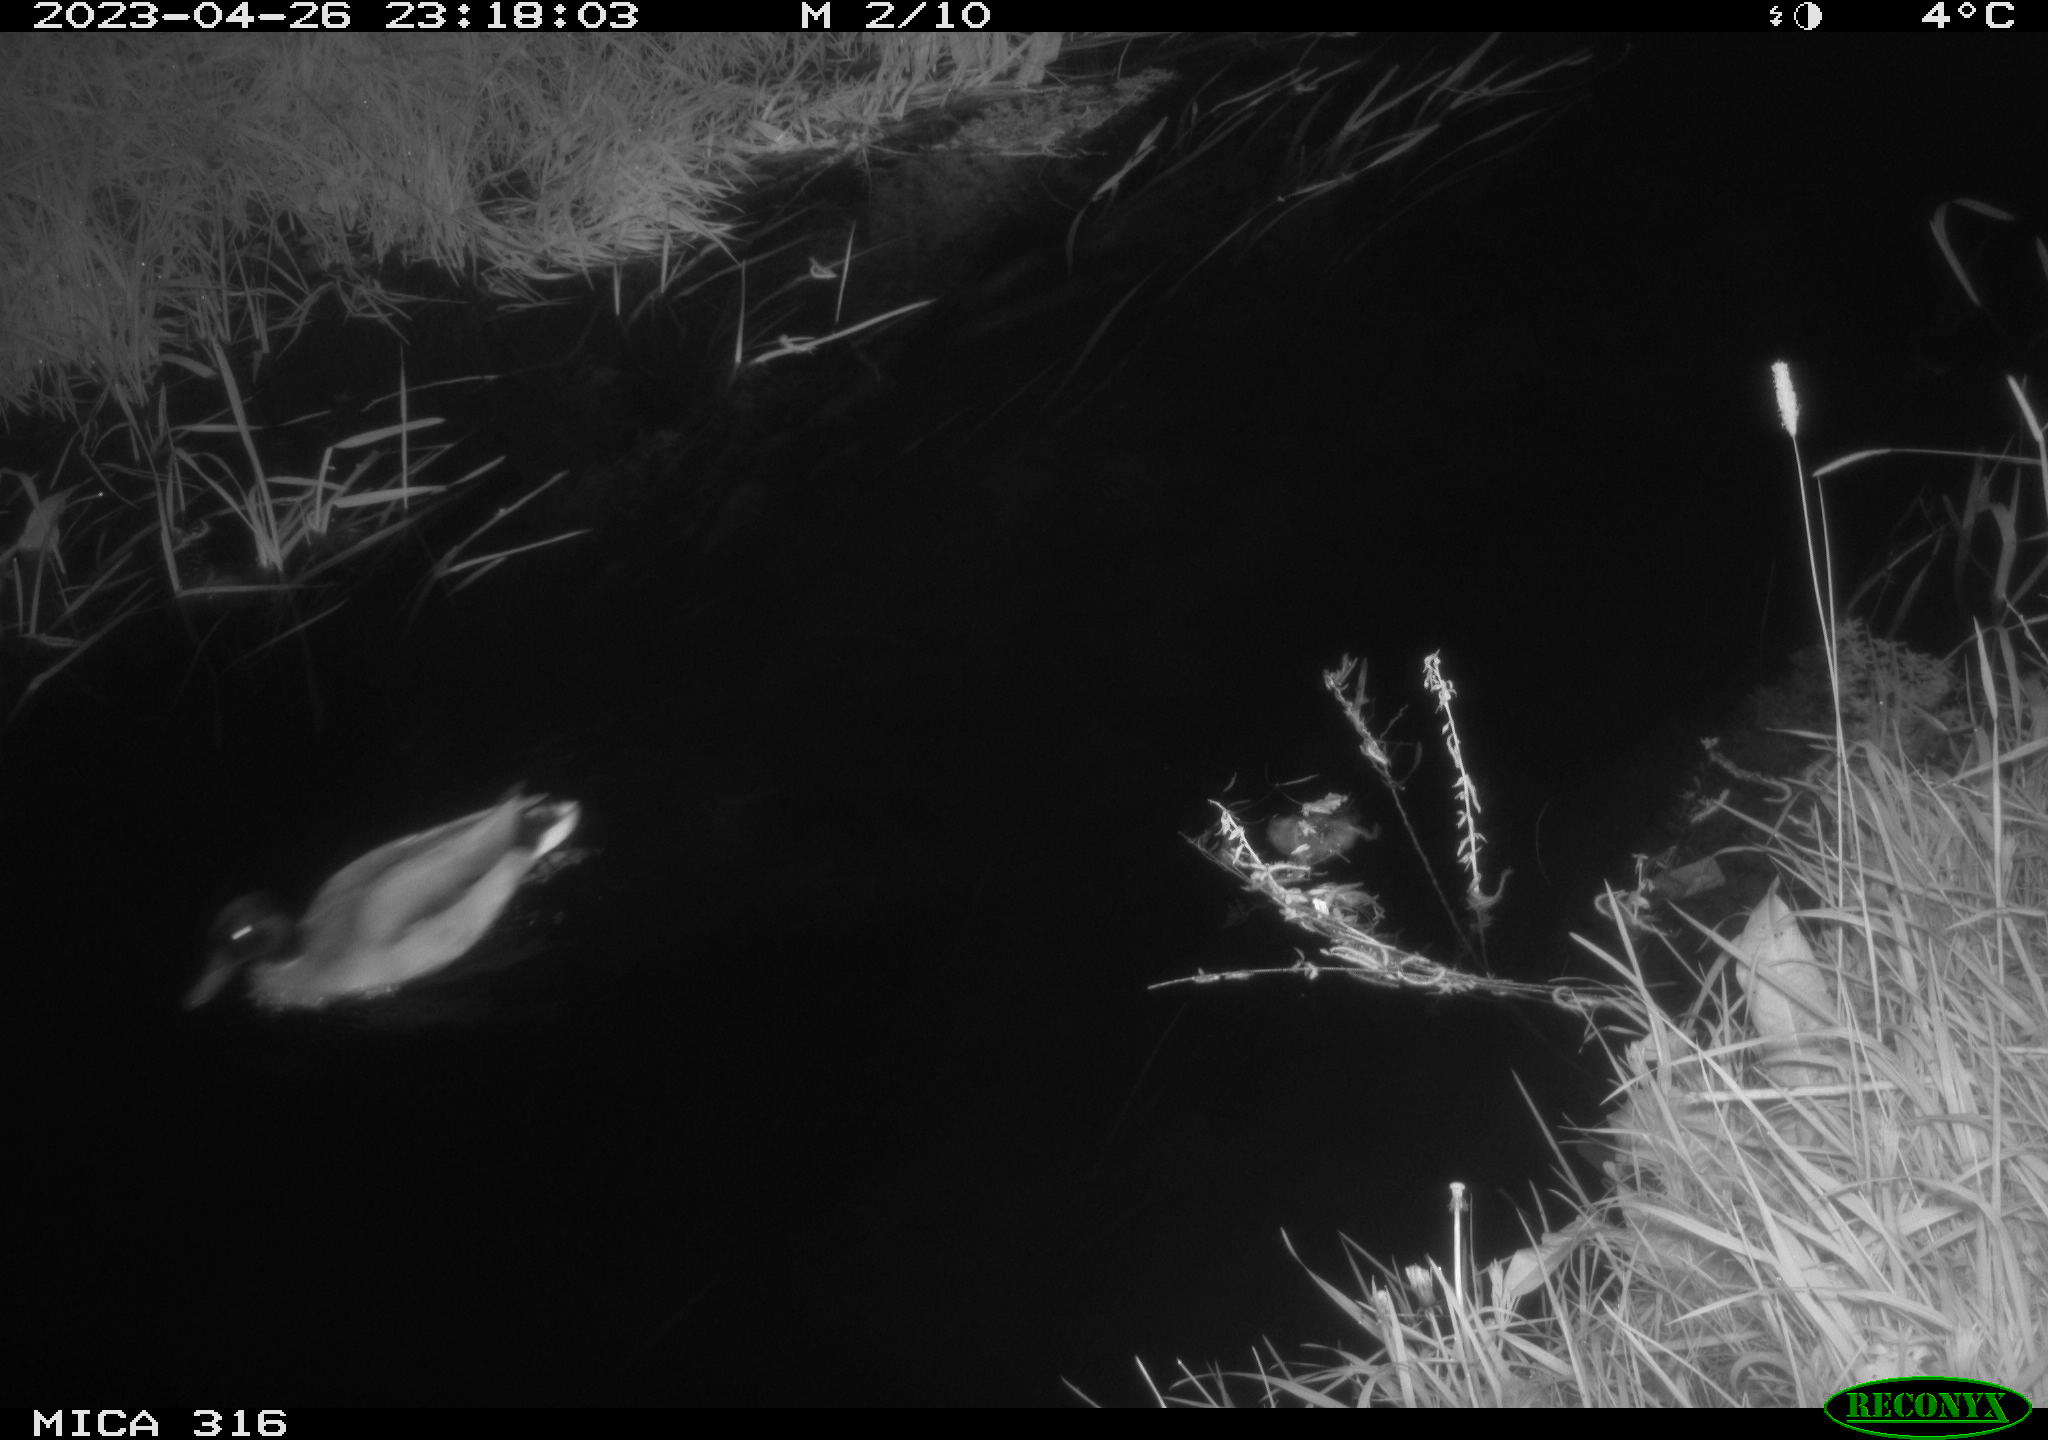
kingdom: Animalia
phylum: Chordata
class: Aves
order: Anseriformes
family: Anatidae
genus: Anas
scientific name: Anas
